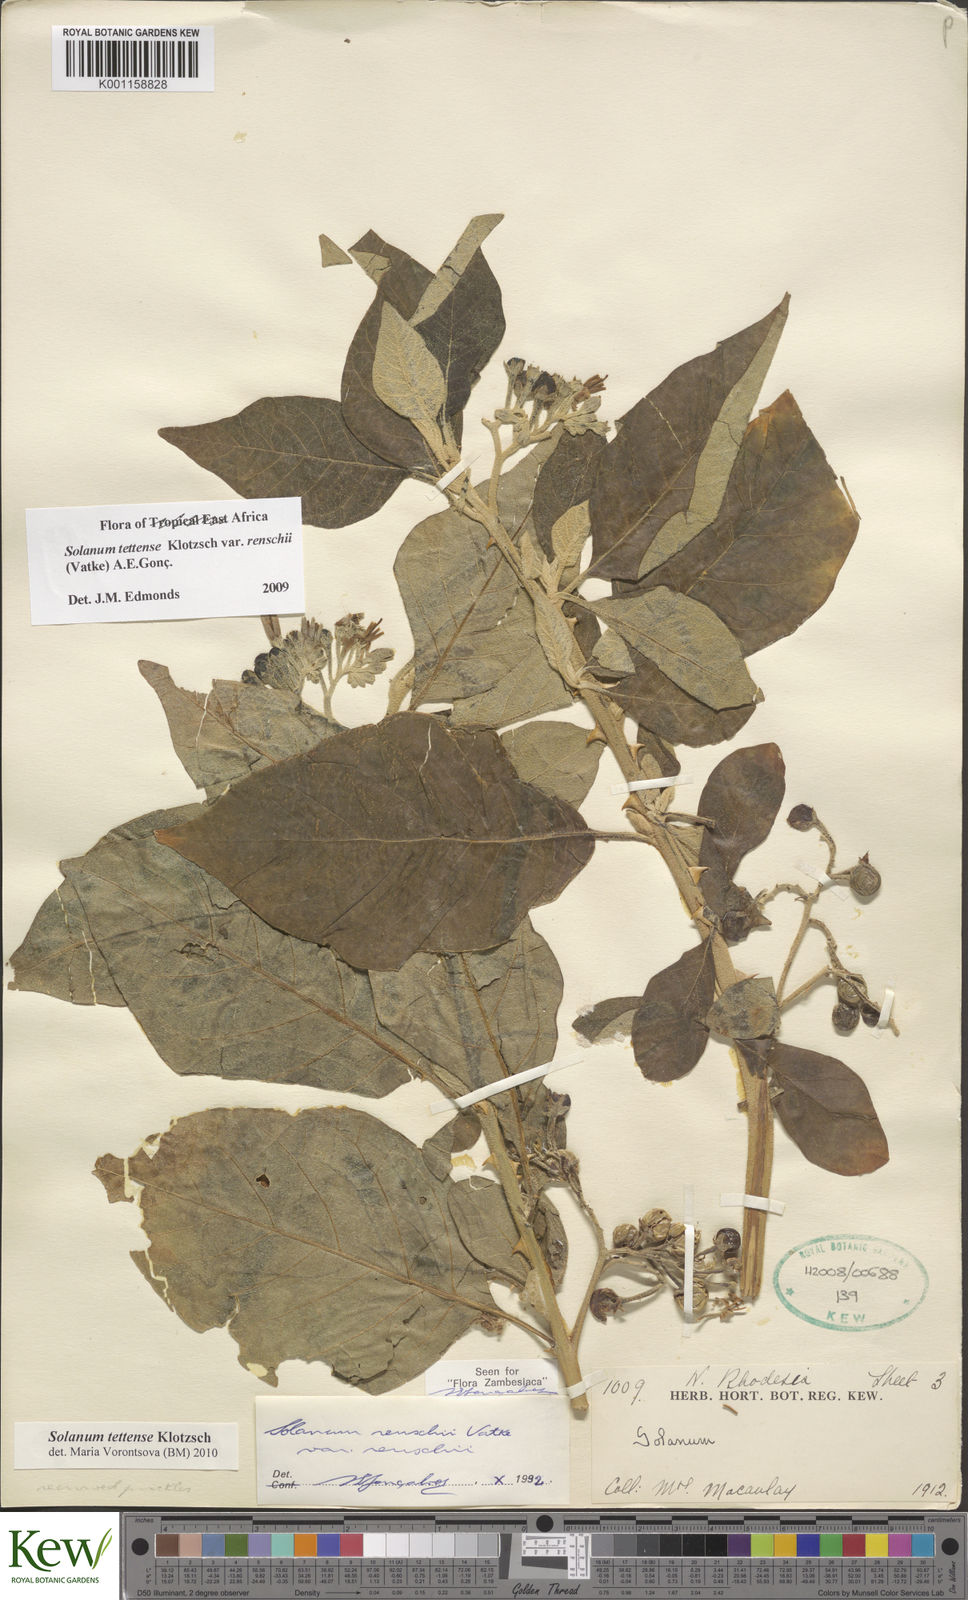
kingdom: Plantae
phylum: Tracheophyta
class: Magnoliopsida
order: Solanales
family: Solanaceae
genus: Solanum
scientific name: Solanum tettense
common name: Mozambique bitter apple
